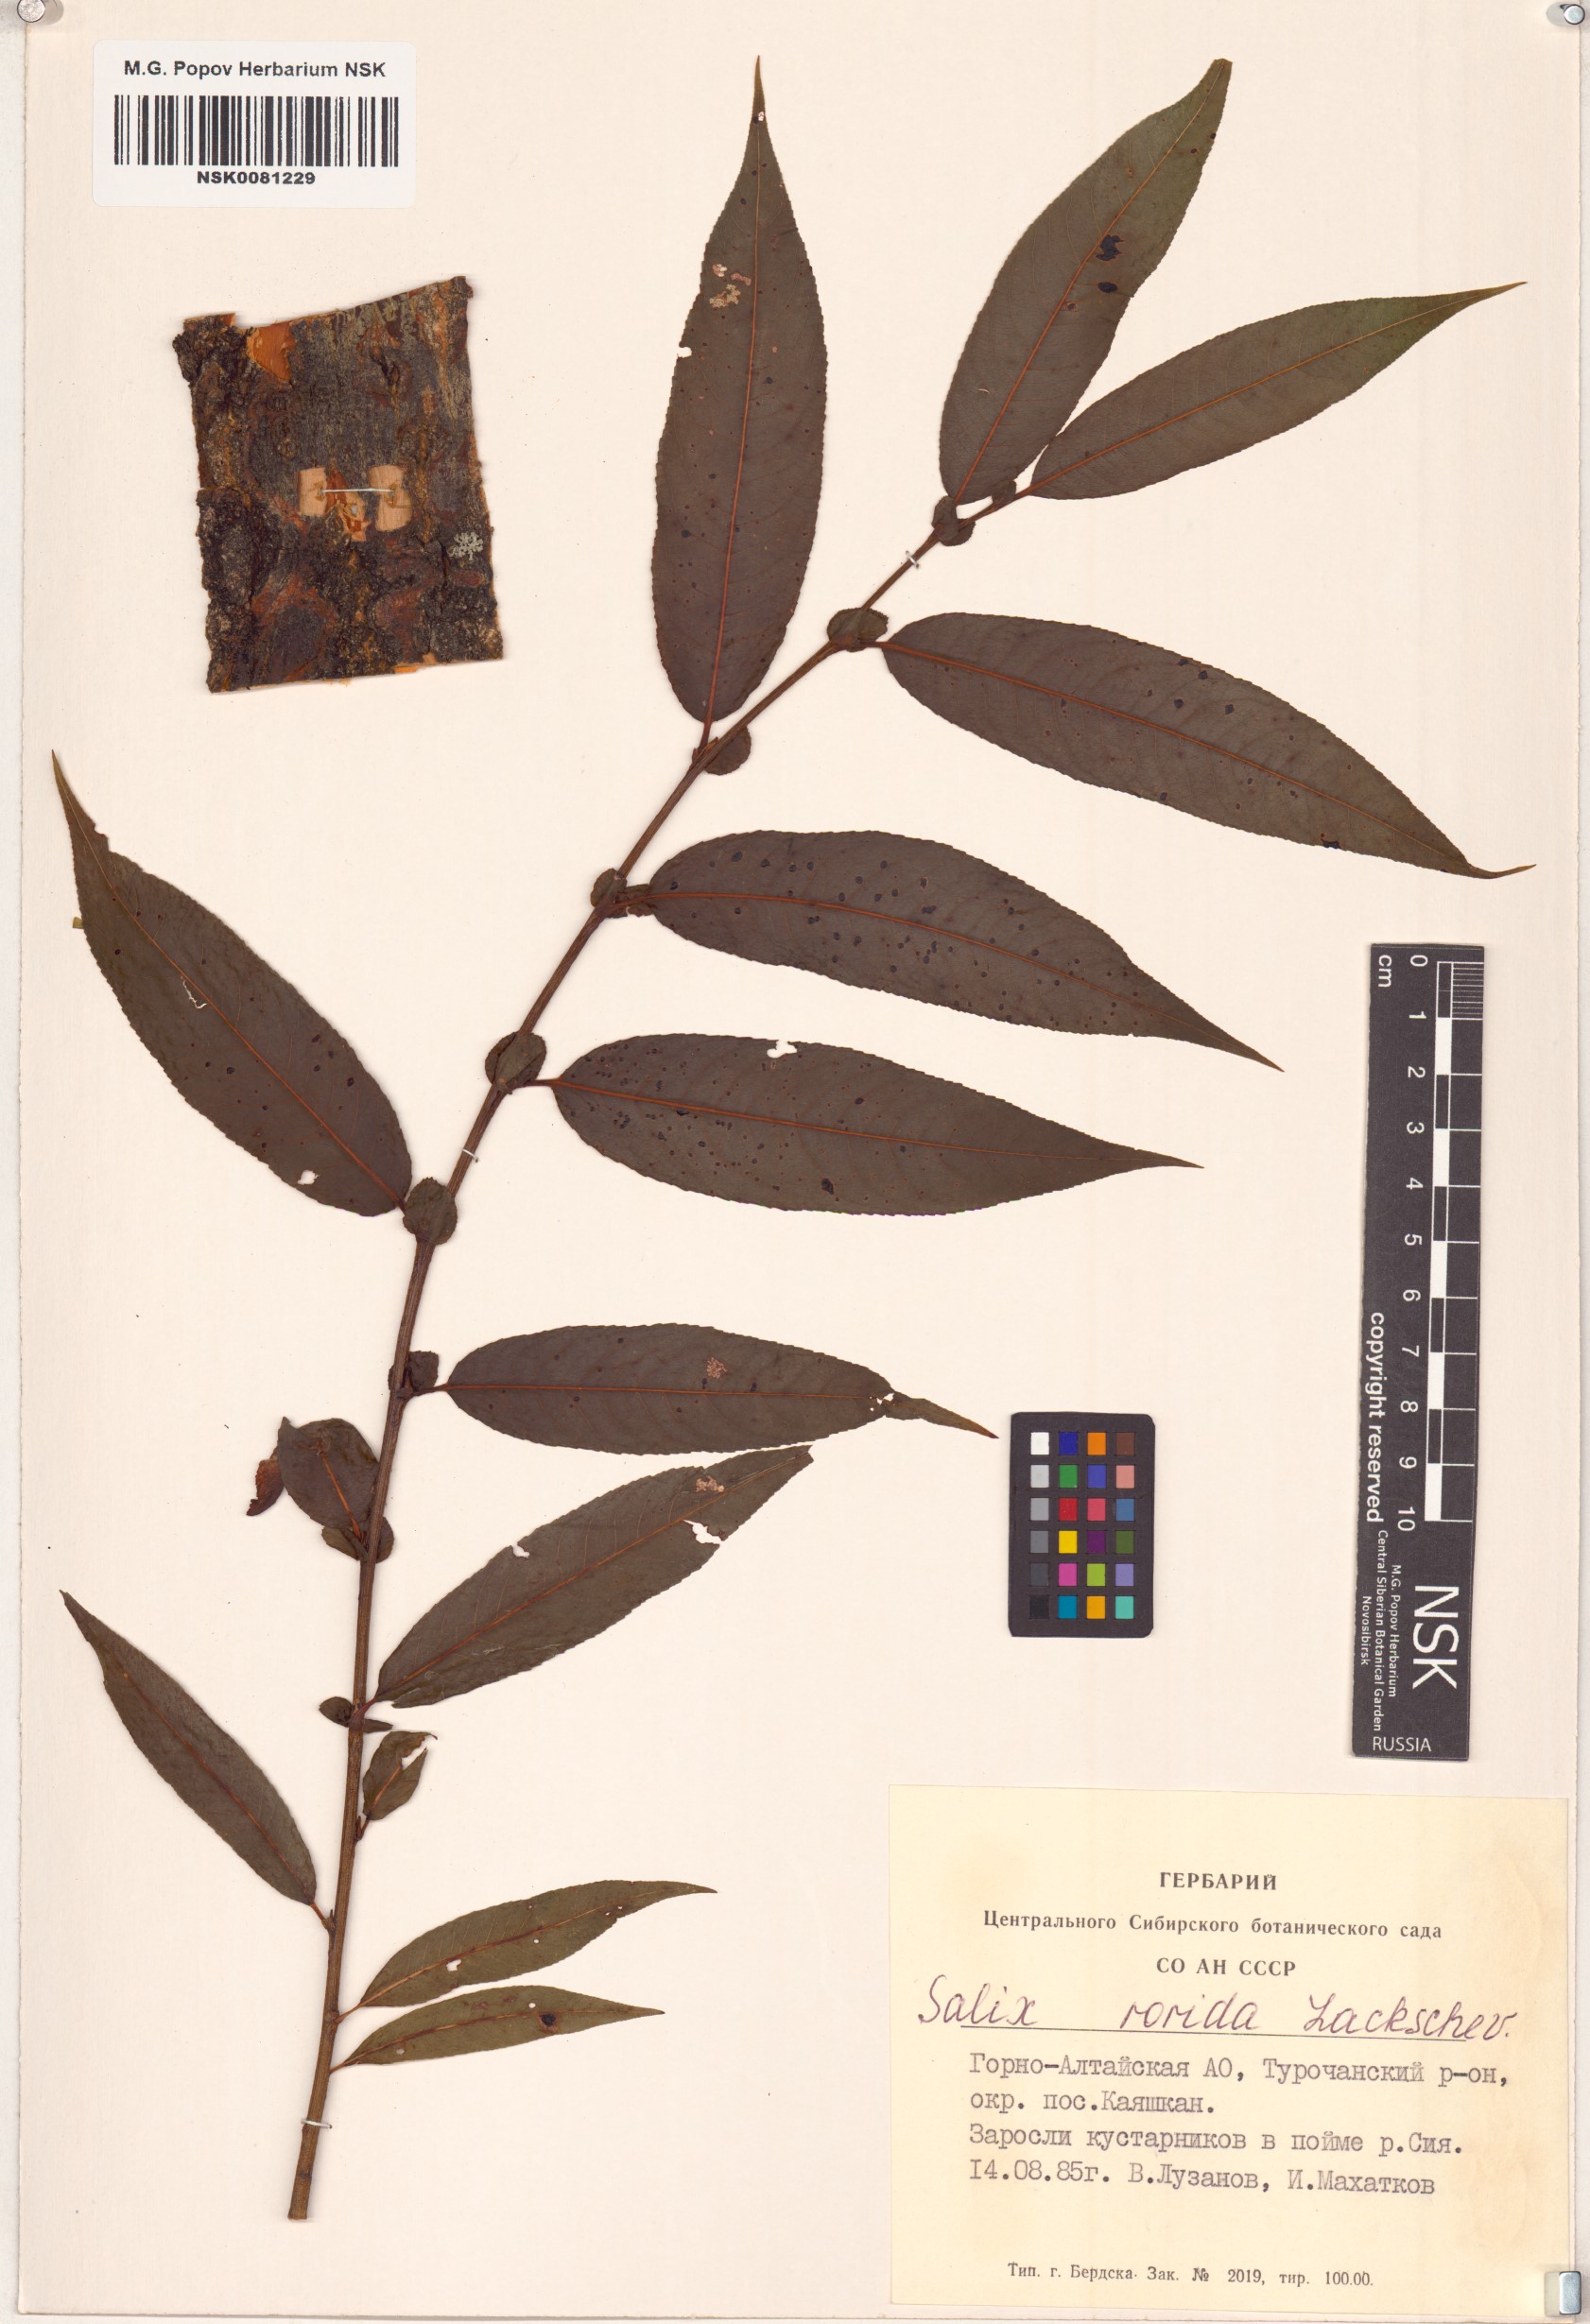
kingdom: Plantae
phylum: Tracheophyta
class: Magnoliopsida
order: Malpighiales
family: Salicaceae
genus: Salix
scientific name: Salix rorida
